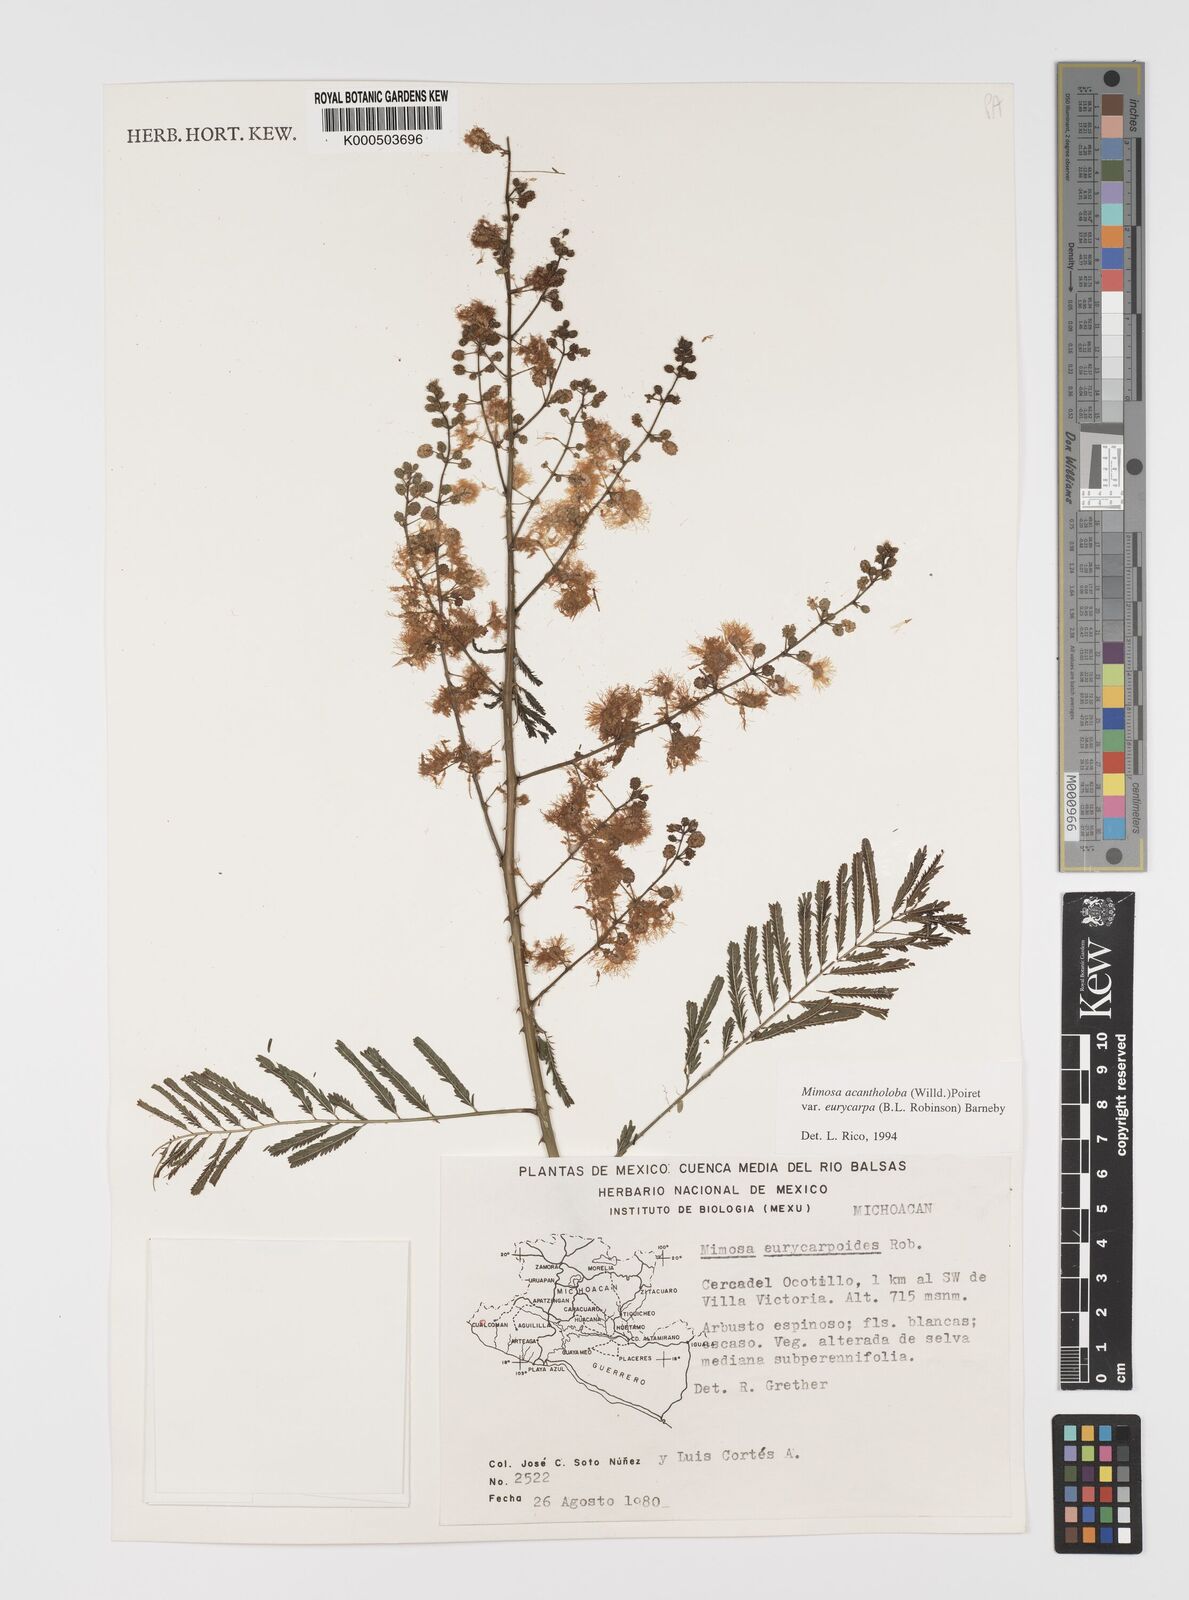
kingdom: Plantae
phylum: Tracheophyta
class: Magnoliopsida
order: Fabales
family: Fabaceae
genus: Mimosa
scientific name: Mimosa acantholoba
